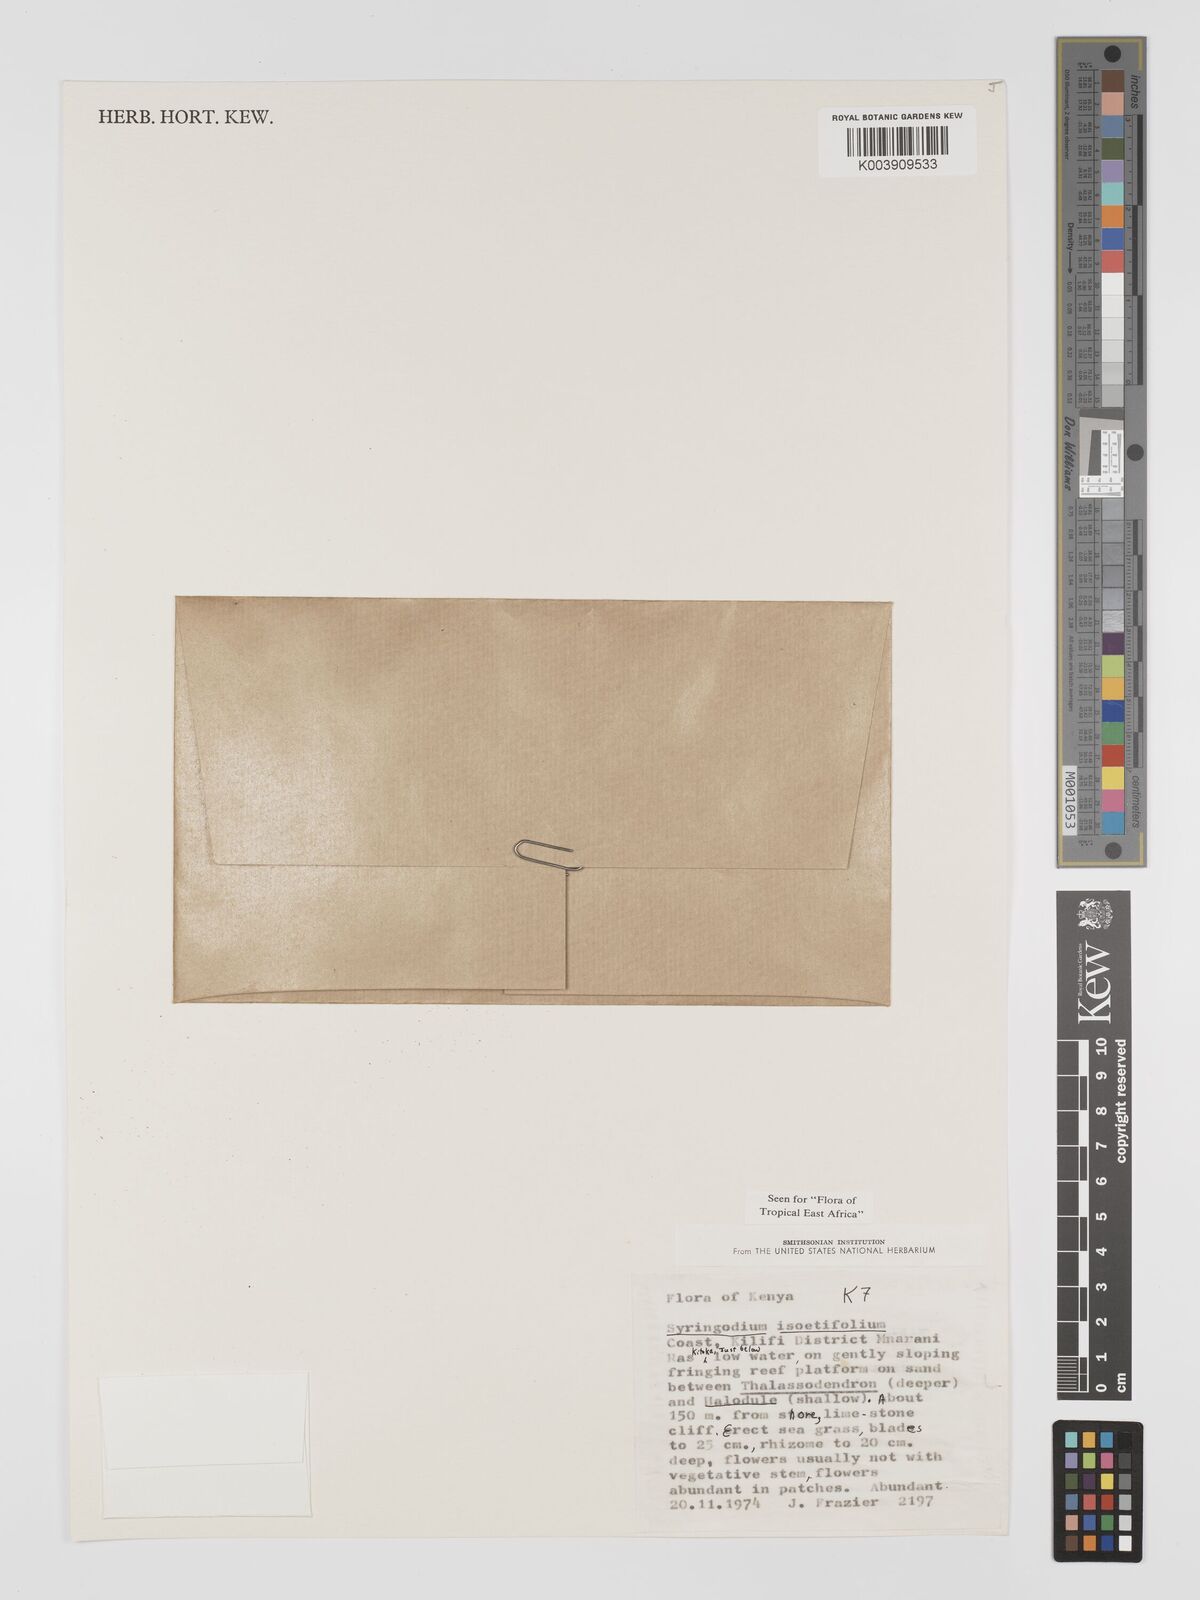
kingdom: Plantae
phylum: Tracheophyta
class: Liliopsida
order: Alismatales
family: Cymodoceaceae
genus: Syringodium
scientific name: Syringodium isoetifolium
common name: Species code: si
